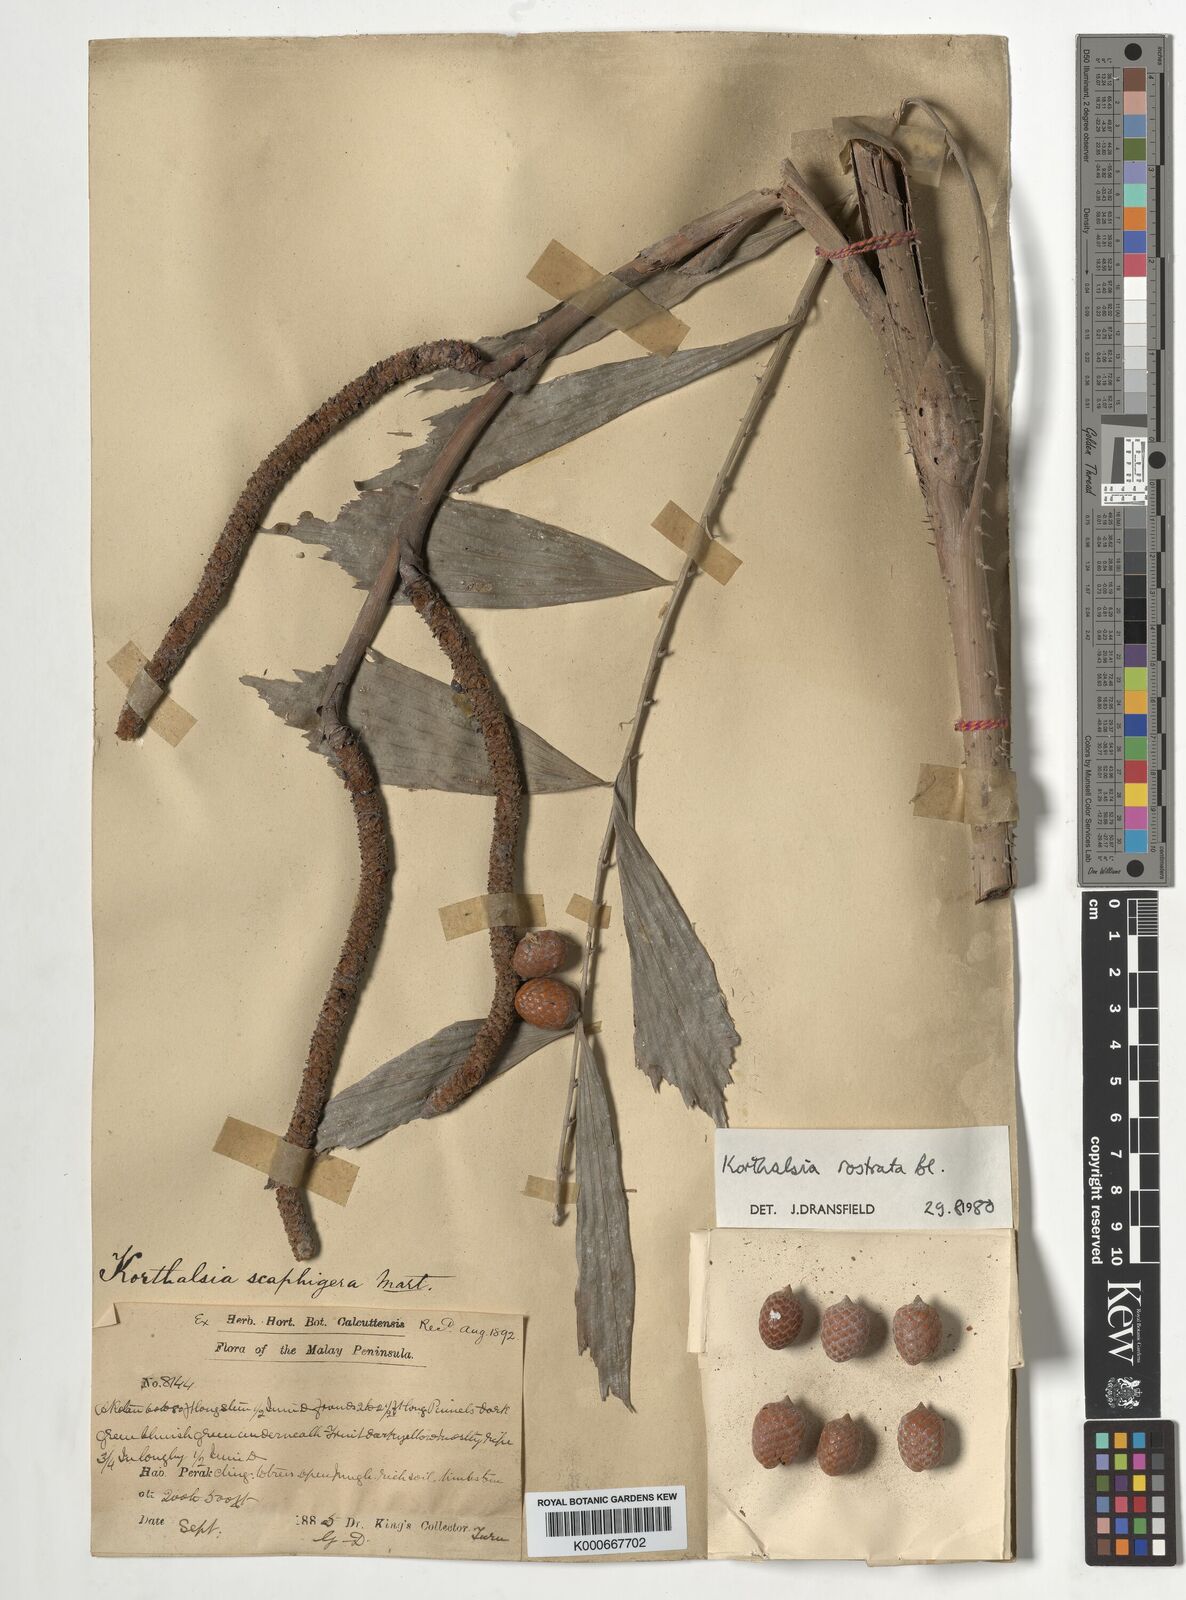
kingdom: Plantae
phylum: Tracheophyta
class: Liliopsida
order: Arecales
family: Arecaceae
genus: Korthalsia
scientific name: Korthalsia rostrata
